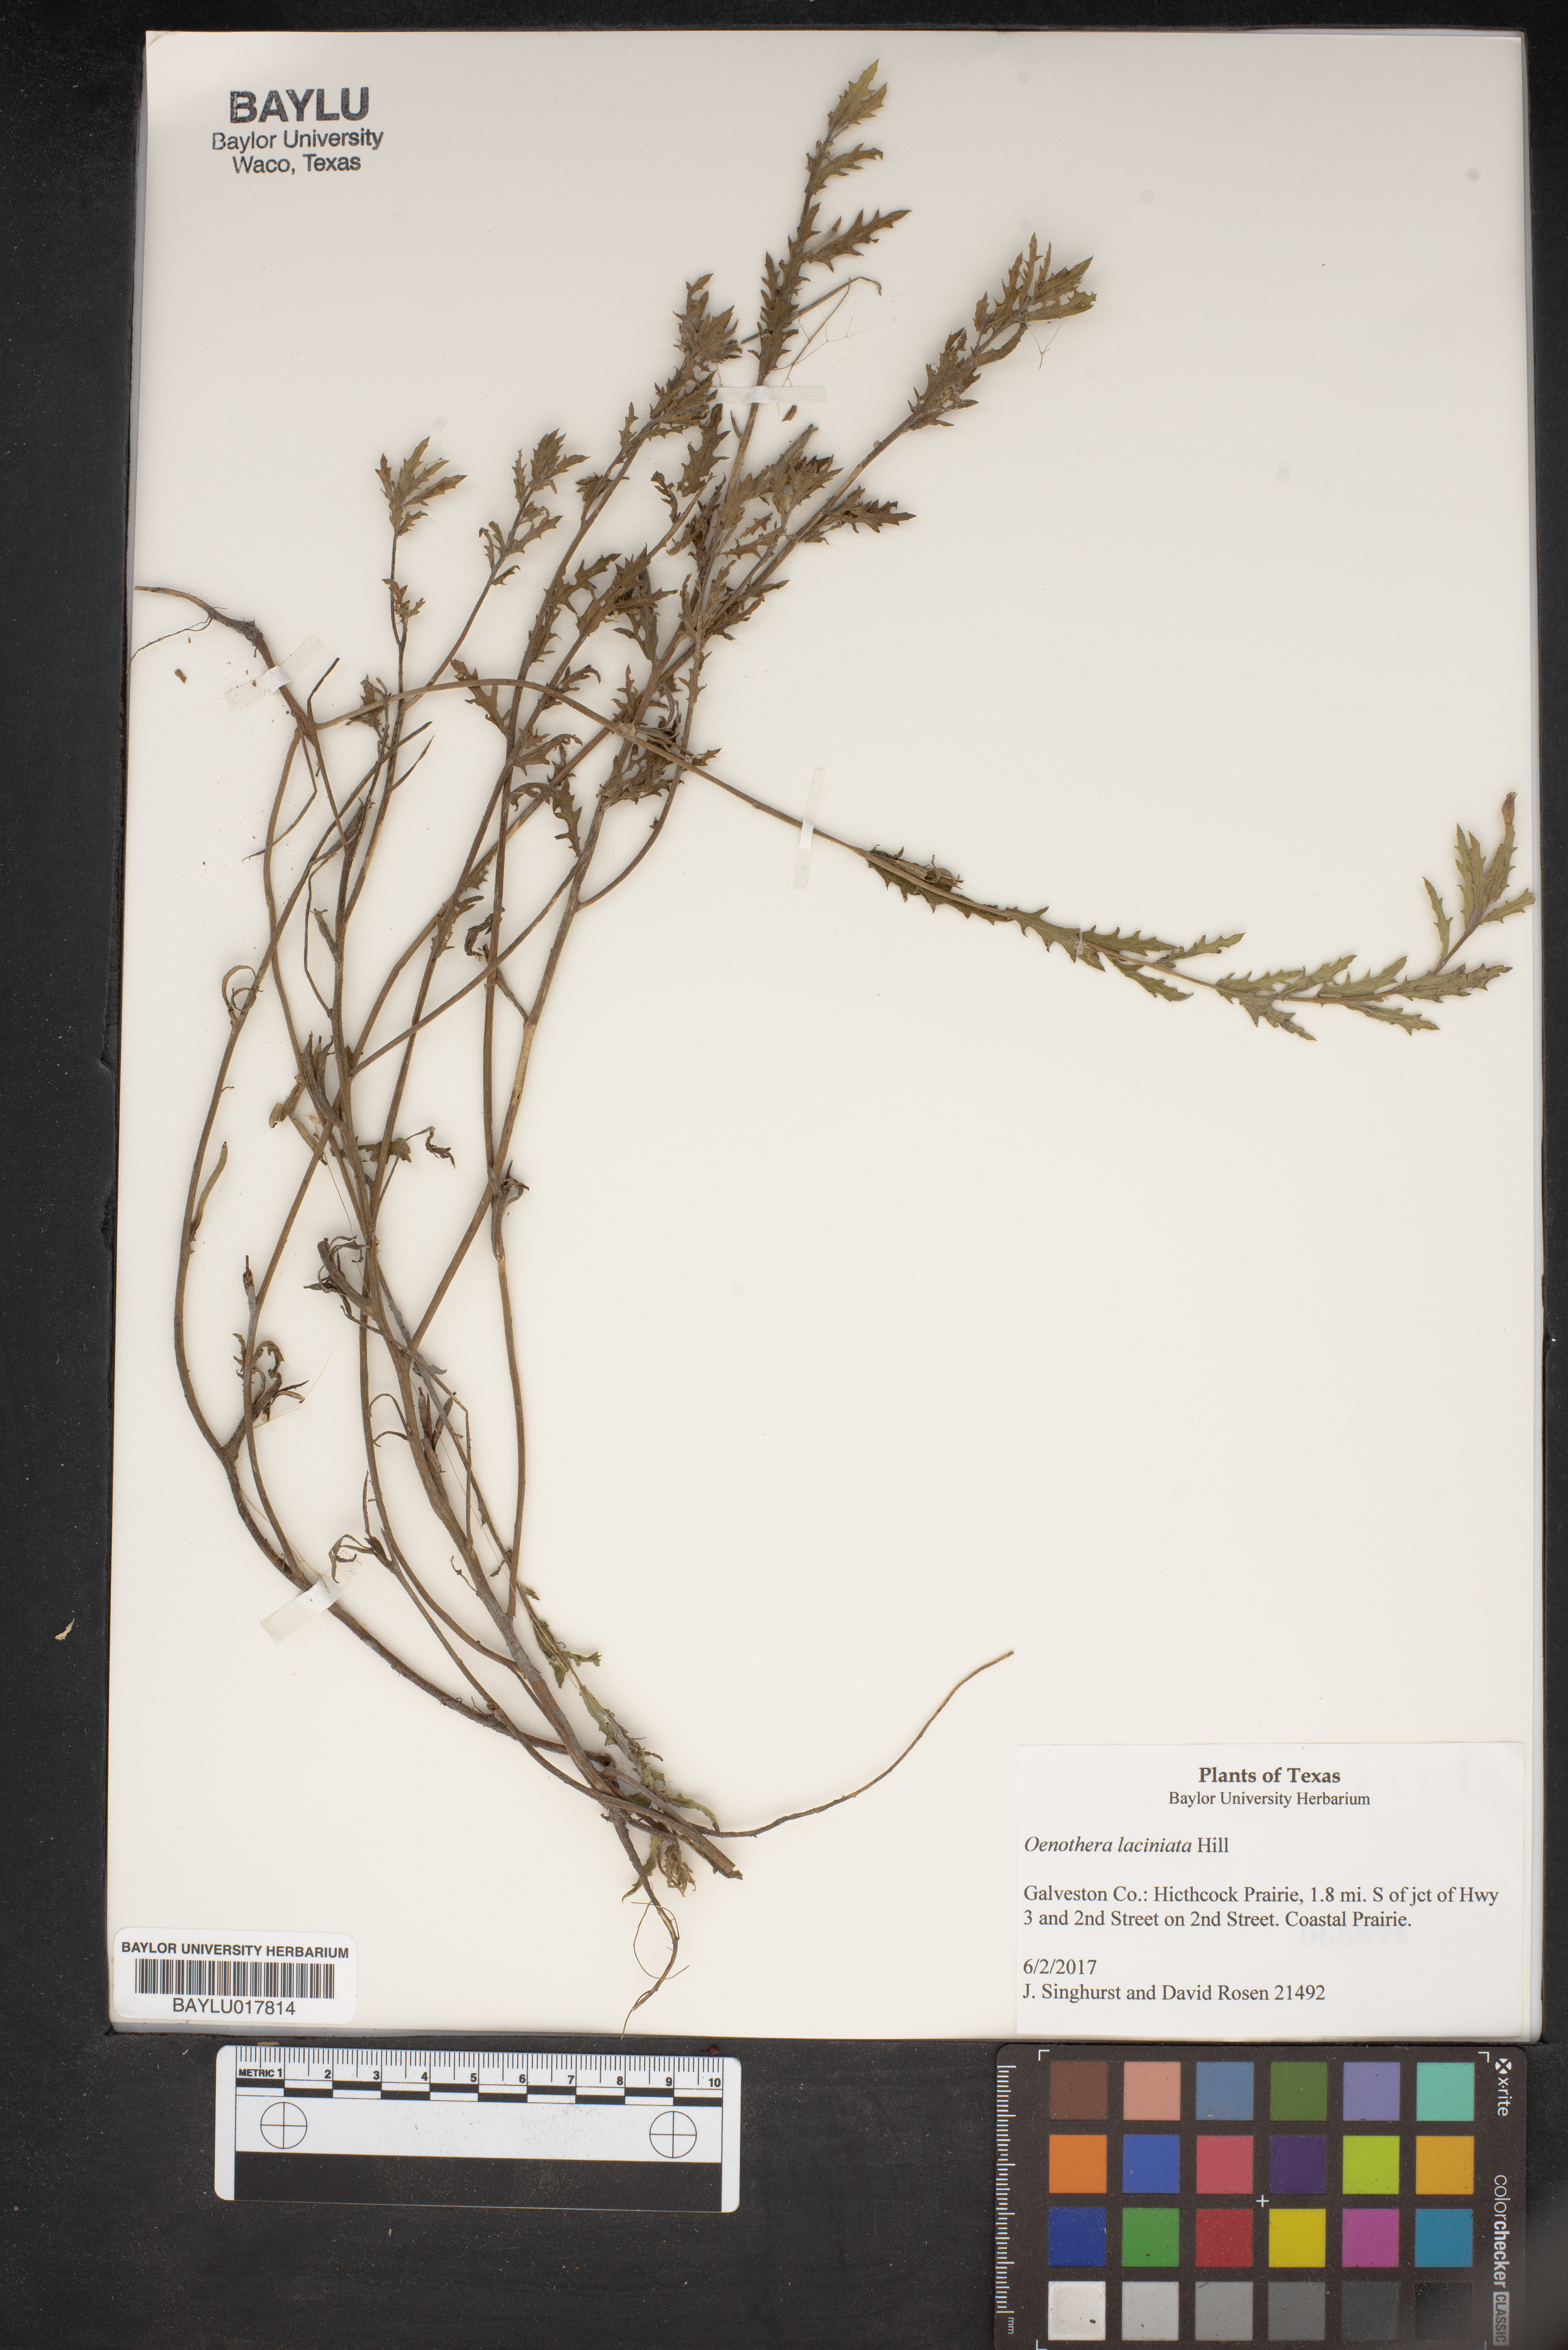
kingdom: Plantae
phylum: Tracheophyta
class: Magnoliopsida
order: Myrtales
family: Onagraceae
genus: Oenothera
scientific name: Oenothera laciniata
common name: Cut-leaved evening-primrose
